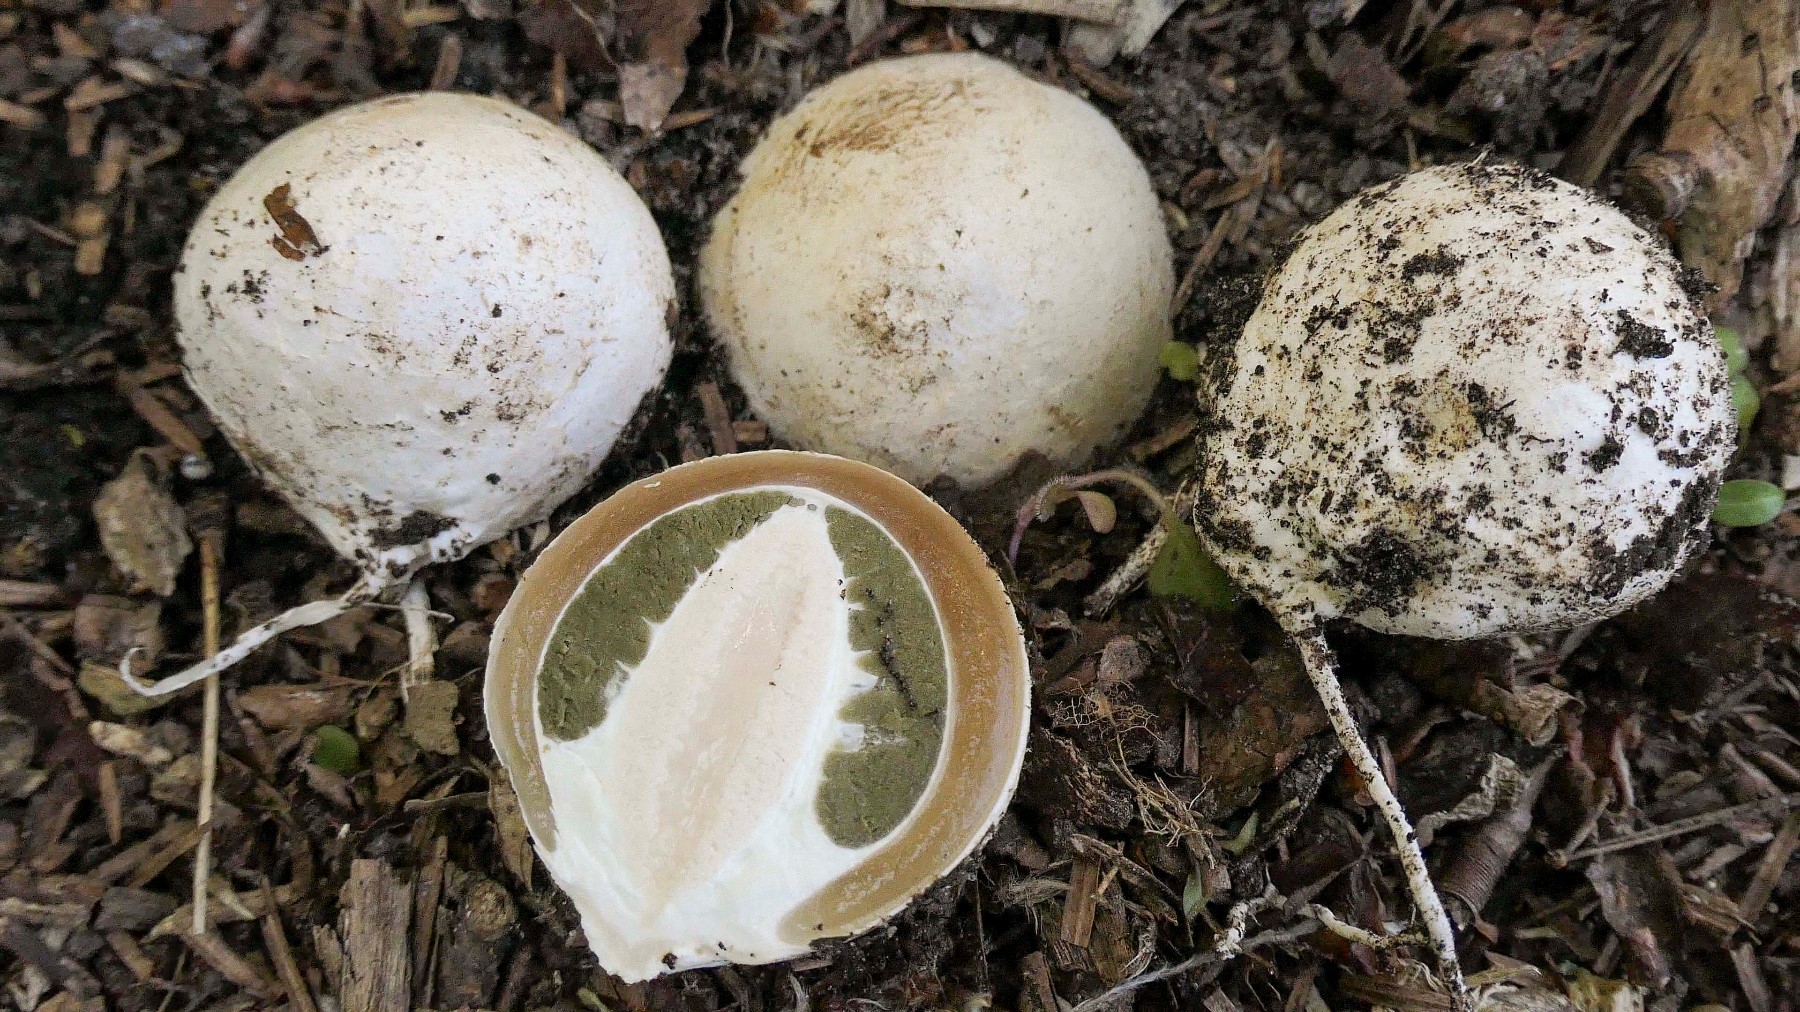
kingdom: Fungi
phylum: Basidiomycota
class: Agaricomycetes
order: Phallales
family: Phallaceae
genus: Phallus
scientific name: Phallus impudicus
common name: almindelig stinksvamp
